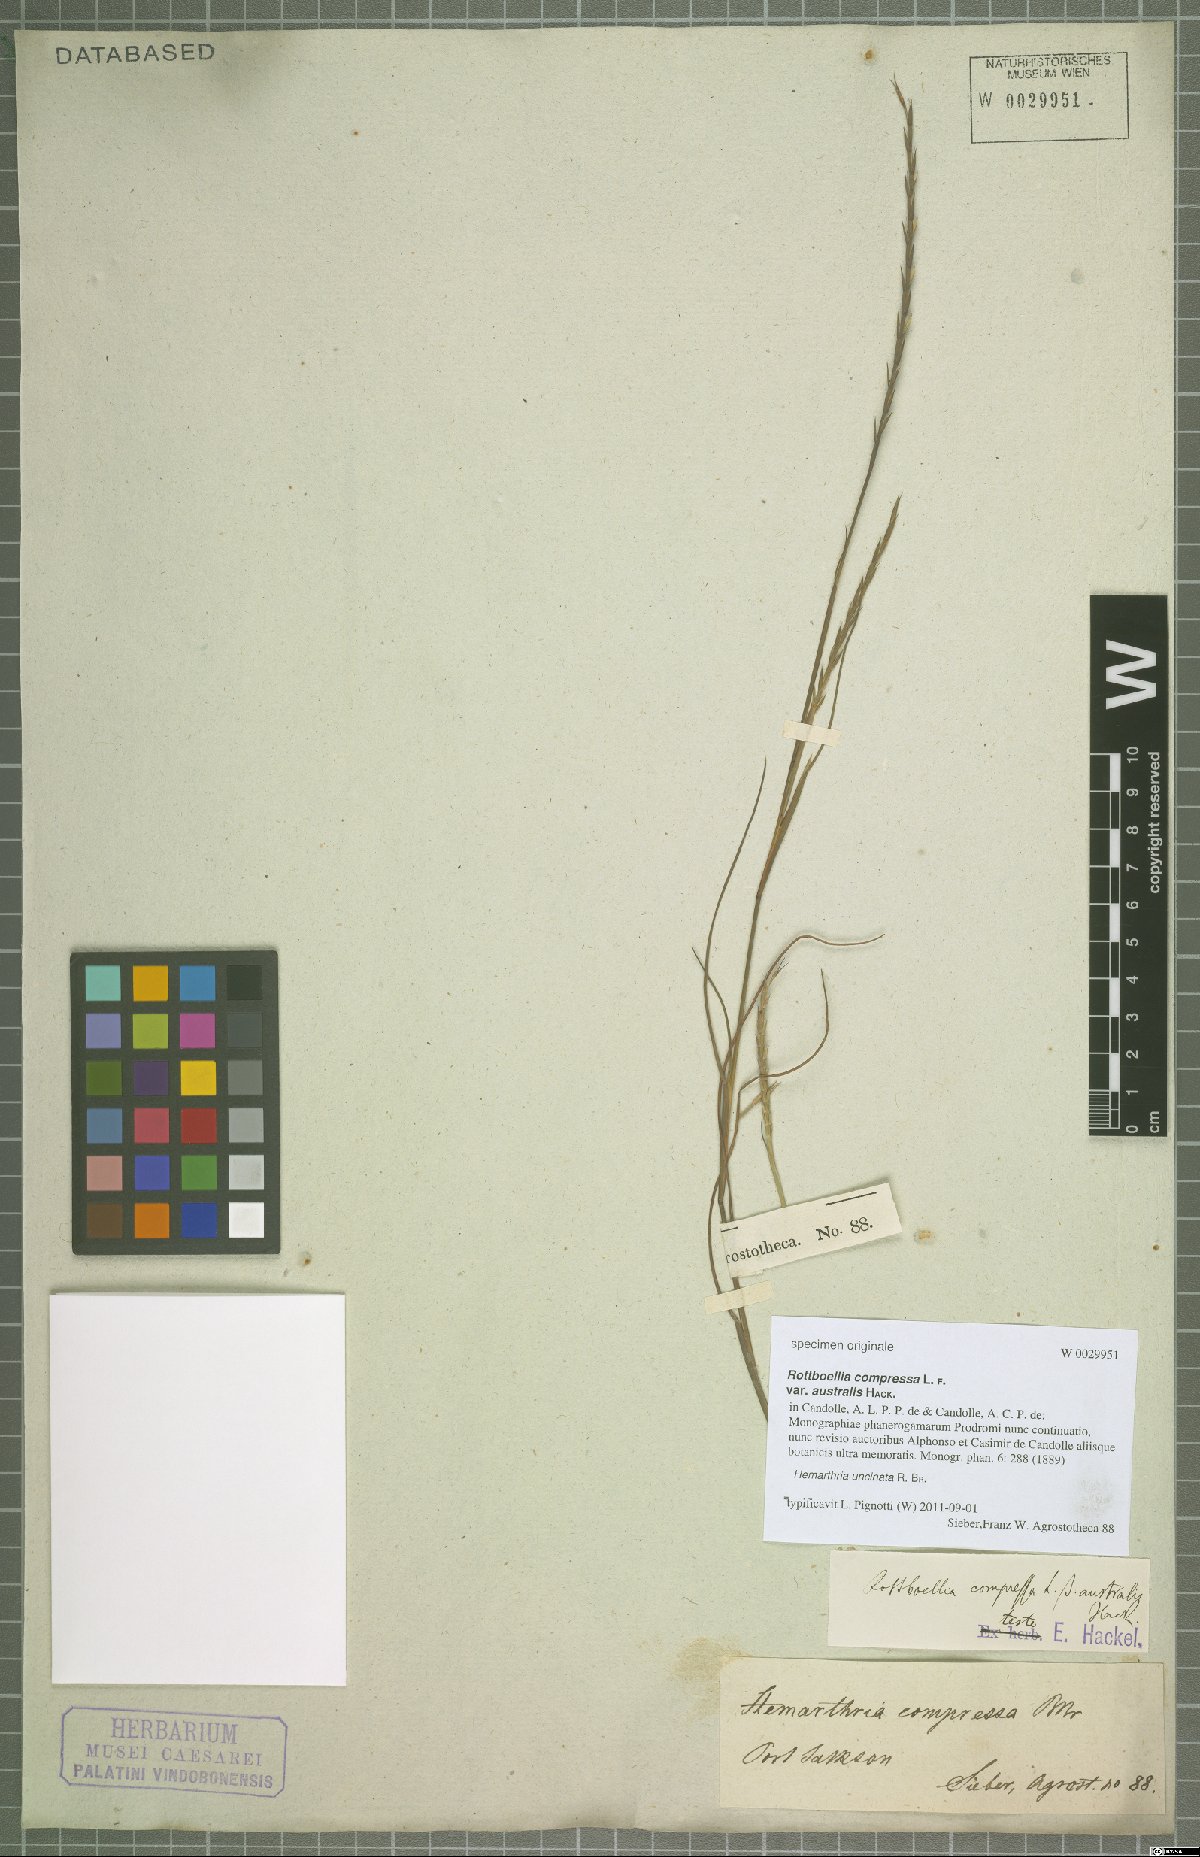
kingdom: Plantae
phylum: Tracheophyta
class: Liliopsida
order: Poales
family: Poaceae
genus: Hemarthria
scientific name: Hemarthria uncinata
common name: Matgrass
